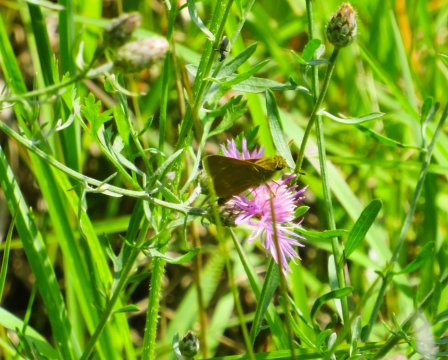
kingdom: Animalia
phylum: Arthropoda
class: Insecta
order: Lepidoptera
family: Hesperiidae
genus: Polites
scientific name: Polites
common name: Crossline Skipper
